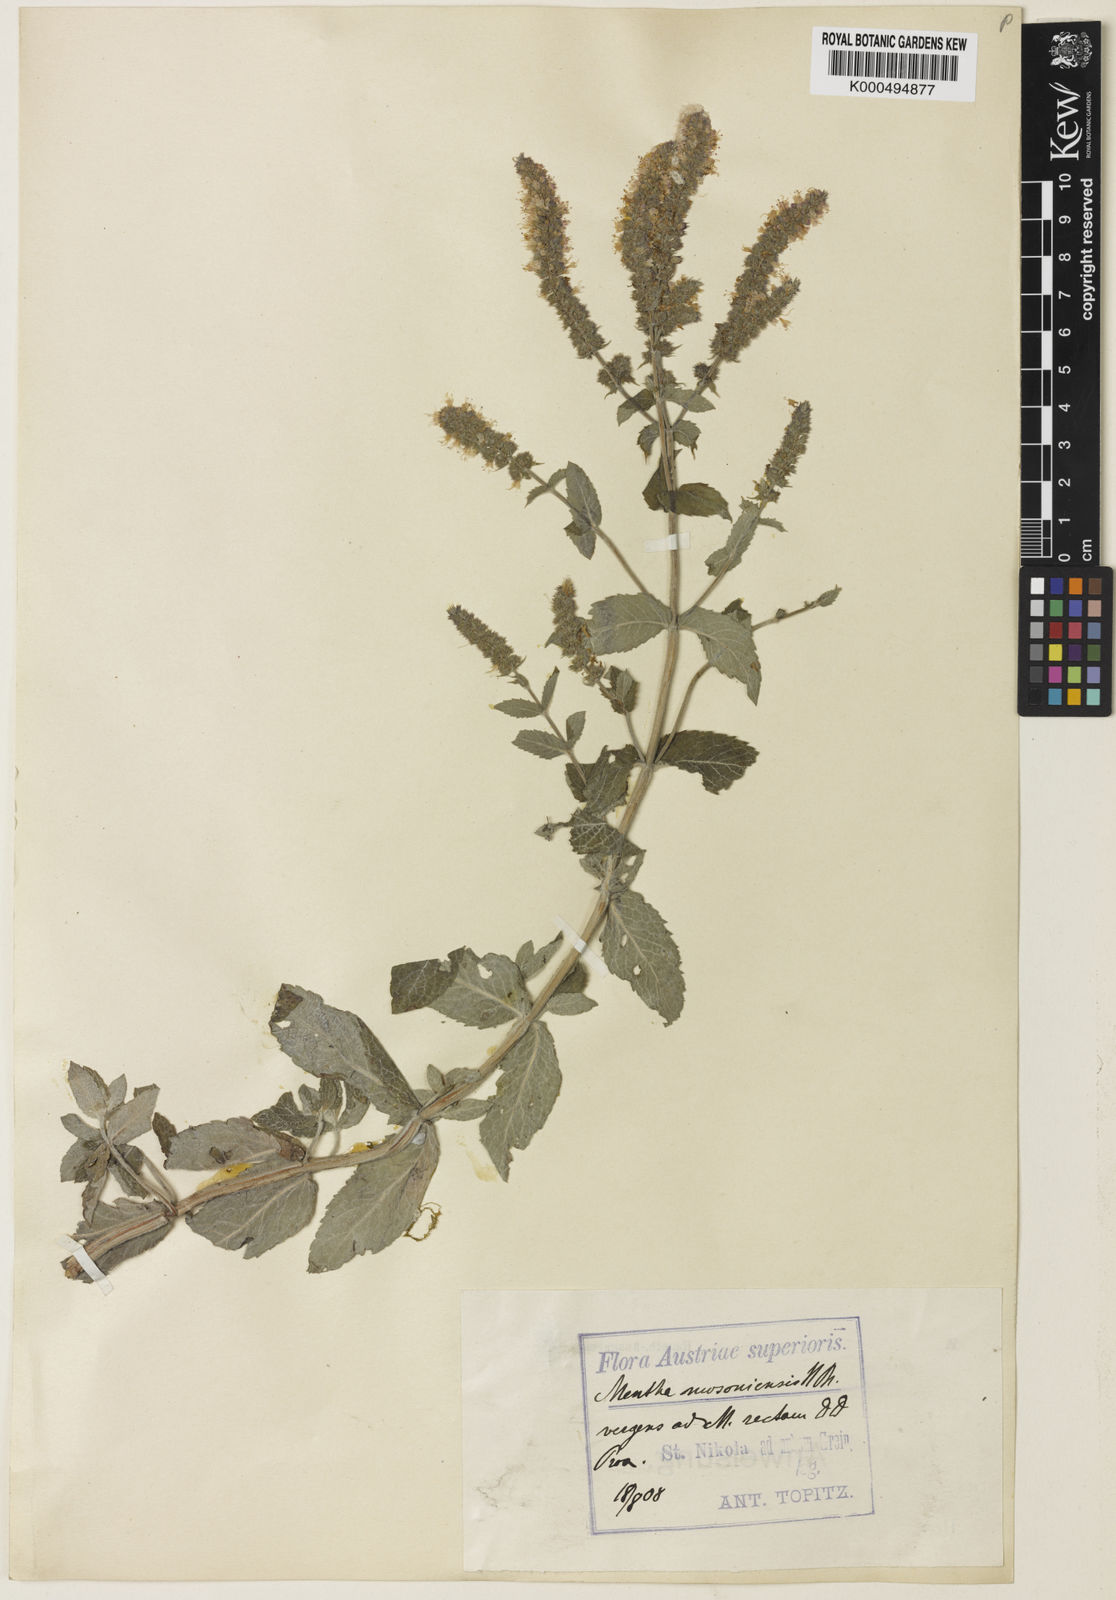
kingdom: Plantae
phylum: Tracheophyta
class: Magnoliopsida
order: Lamiales
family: Lamiaceae
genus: Mentha
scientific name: Mentha rotundifolia
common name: Bigleaf mint
